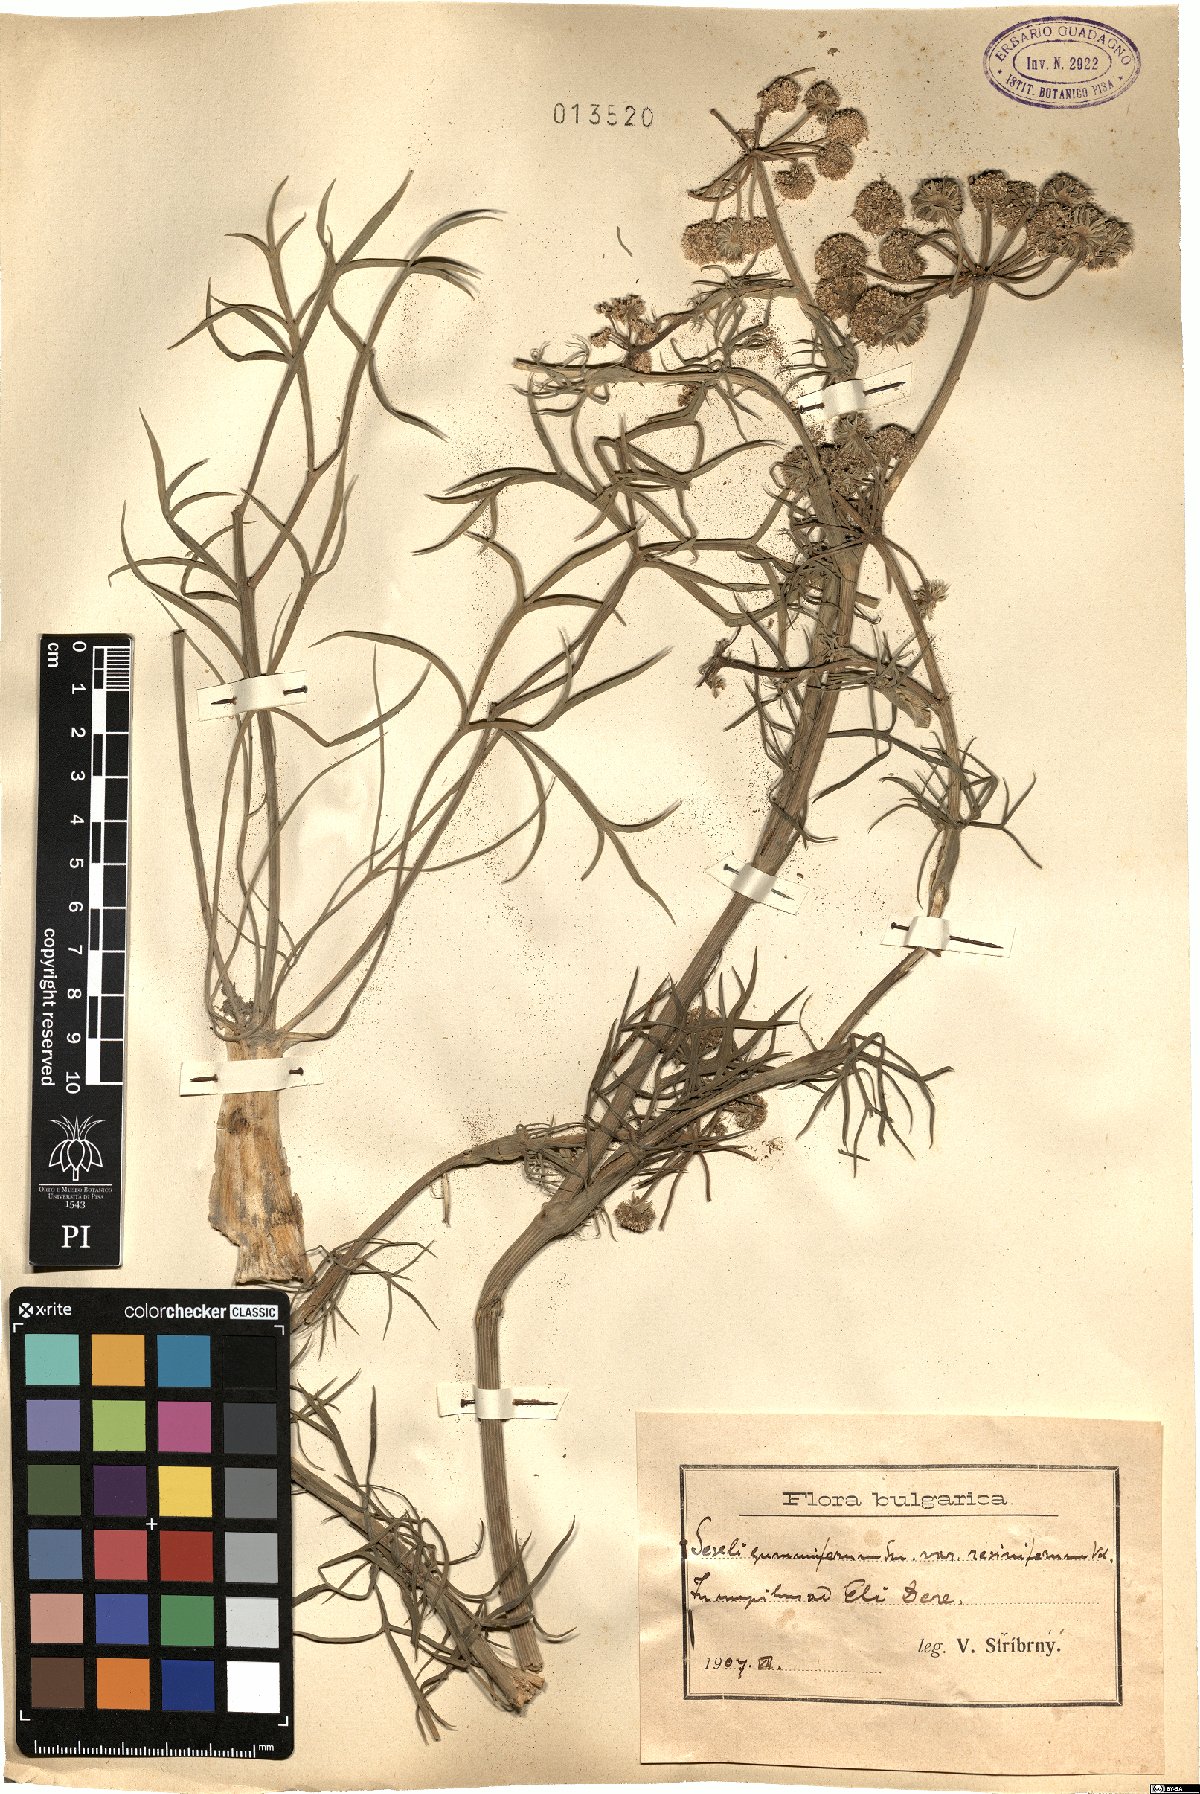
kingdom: Plantae
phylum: Tracheophyta
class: Magnoliopsida
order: Apiales
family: Apiaceae
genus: Seseli
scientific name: Seseli gummiferum
